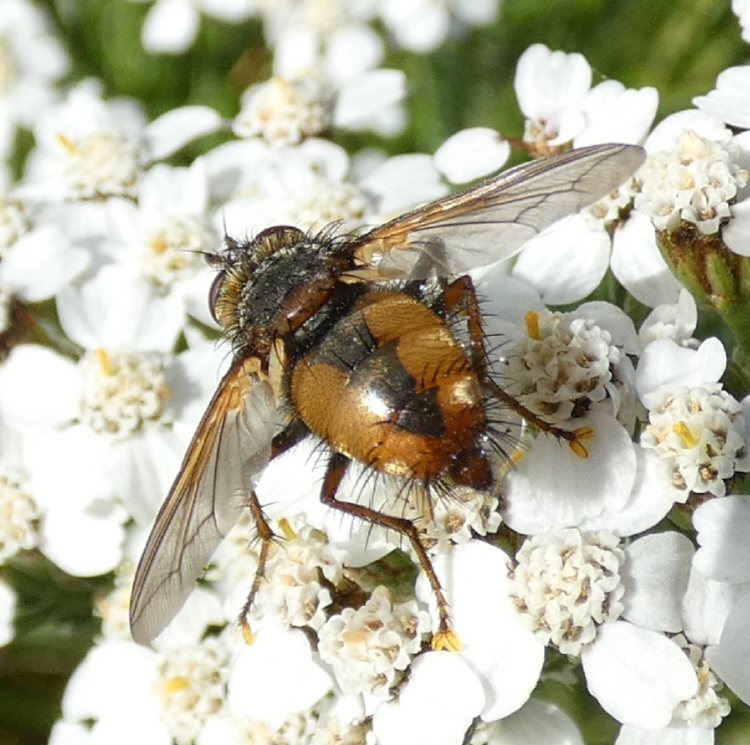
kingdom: Animalia
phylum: Arthropoda
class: Insecta
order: Diptera
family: Tachinidae
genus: Tachina
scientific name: Tachina fera
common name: Mellemfluen oskar
